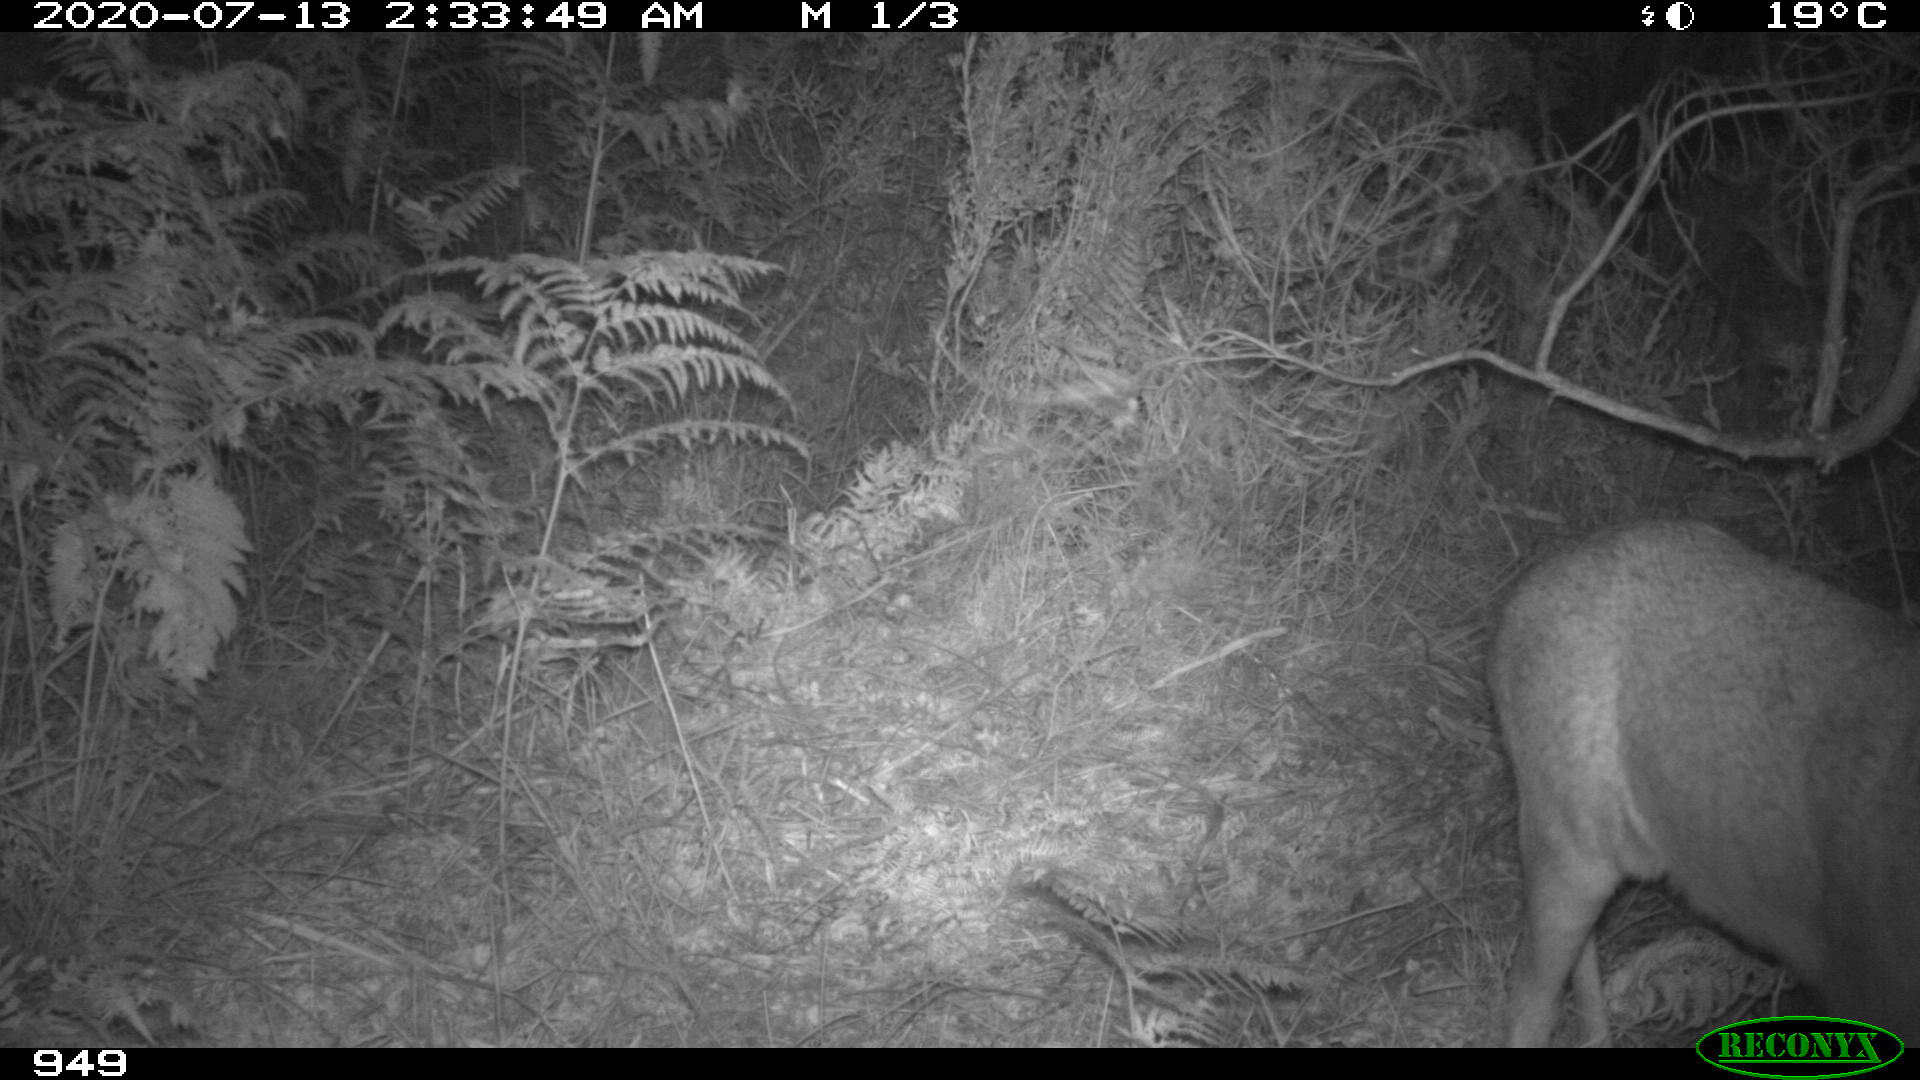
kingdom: Animalia
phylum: Chordata
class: Mammalia
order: Artiodactyla
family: Cervidae
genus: Capreolus
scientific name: Capreolus capreolus
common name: Western roe deer
